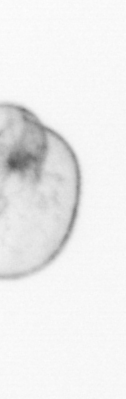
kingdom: Chromista
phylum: Myzozoa
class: Dinophyceae
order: Noctilucales
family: Noctilucaceae
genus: Noctiluca
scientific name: Noctiluca scintillans
